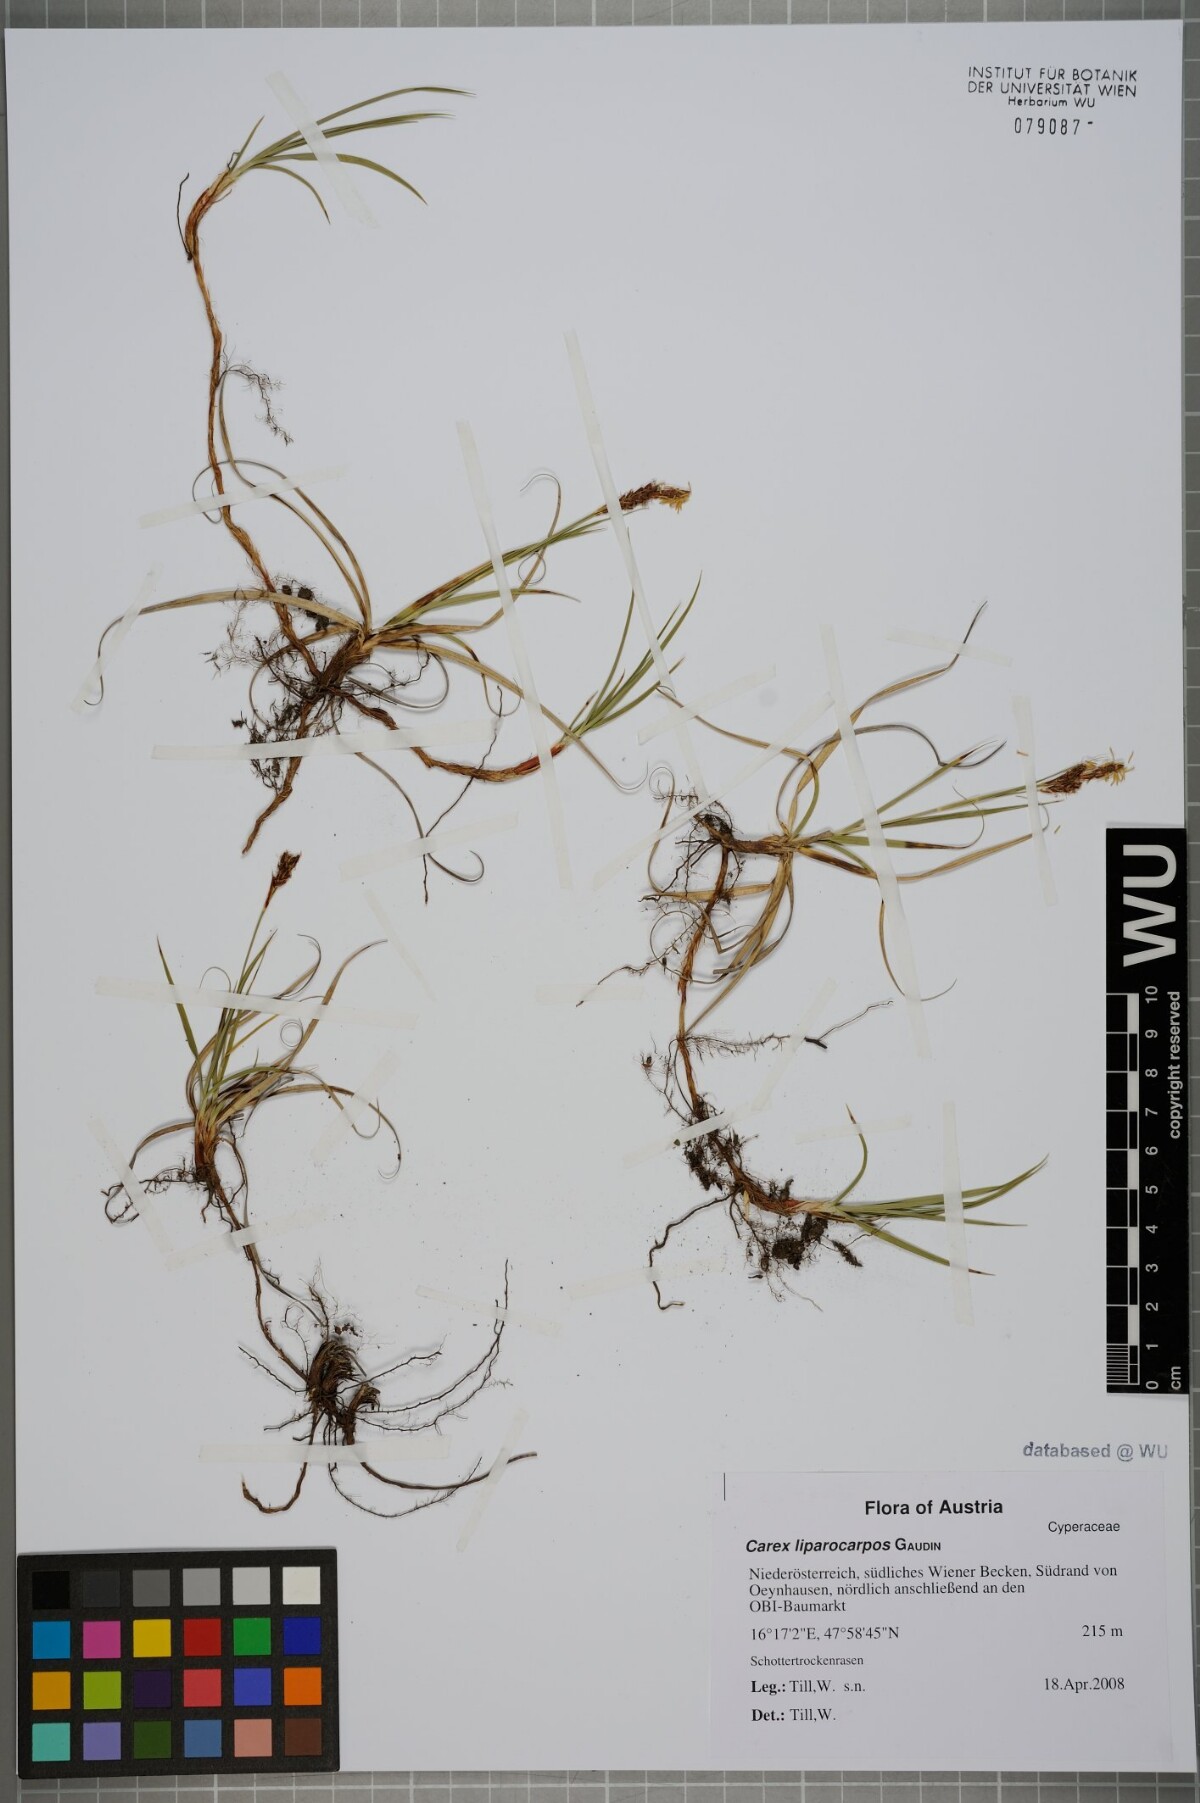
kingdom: Plantae
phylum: Tracheophyta
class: Liliopsida
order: Poales
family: Cyperaceae
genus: Carex
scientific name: Carex liparocarpos
